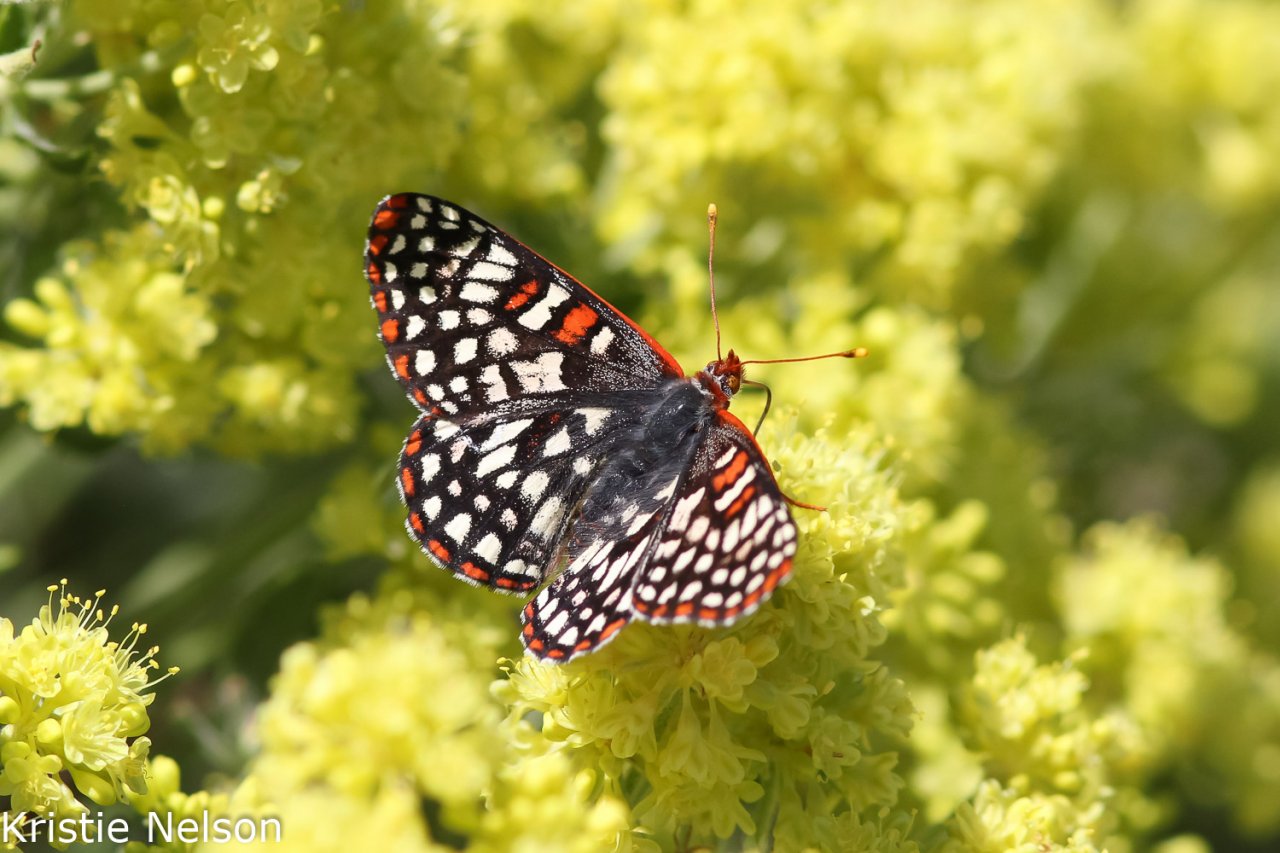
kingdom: Animalia
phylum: Arthropoda
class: Insecta
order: Lepidoptera
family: Nymphalidae
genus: Occidryas
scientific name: Occidryas chalcedona
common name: Chalcedon Checkerspot
